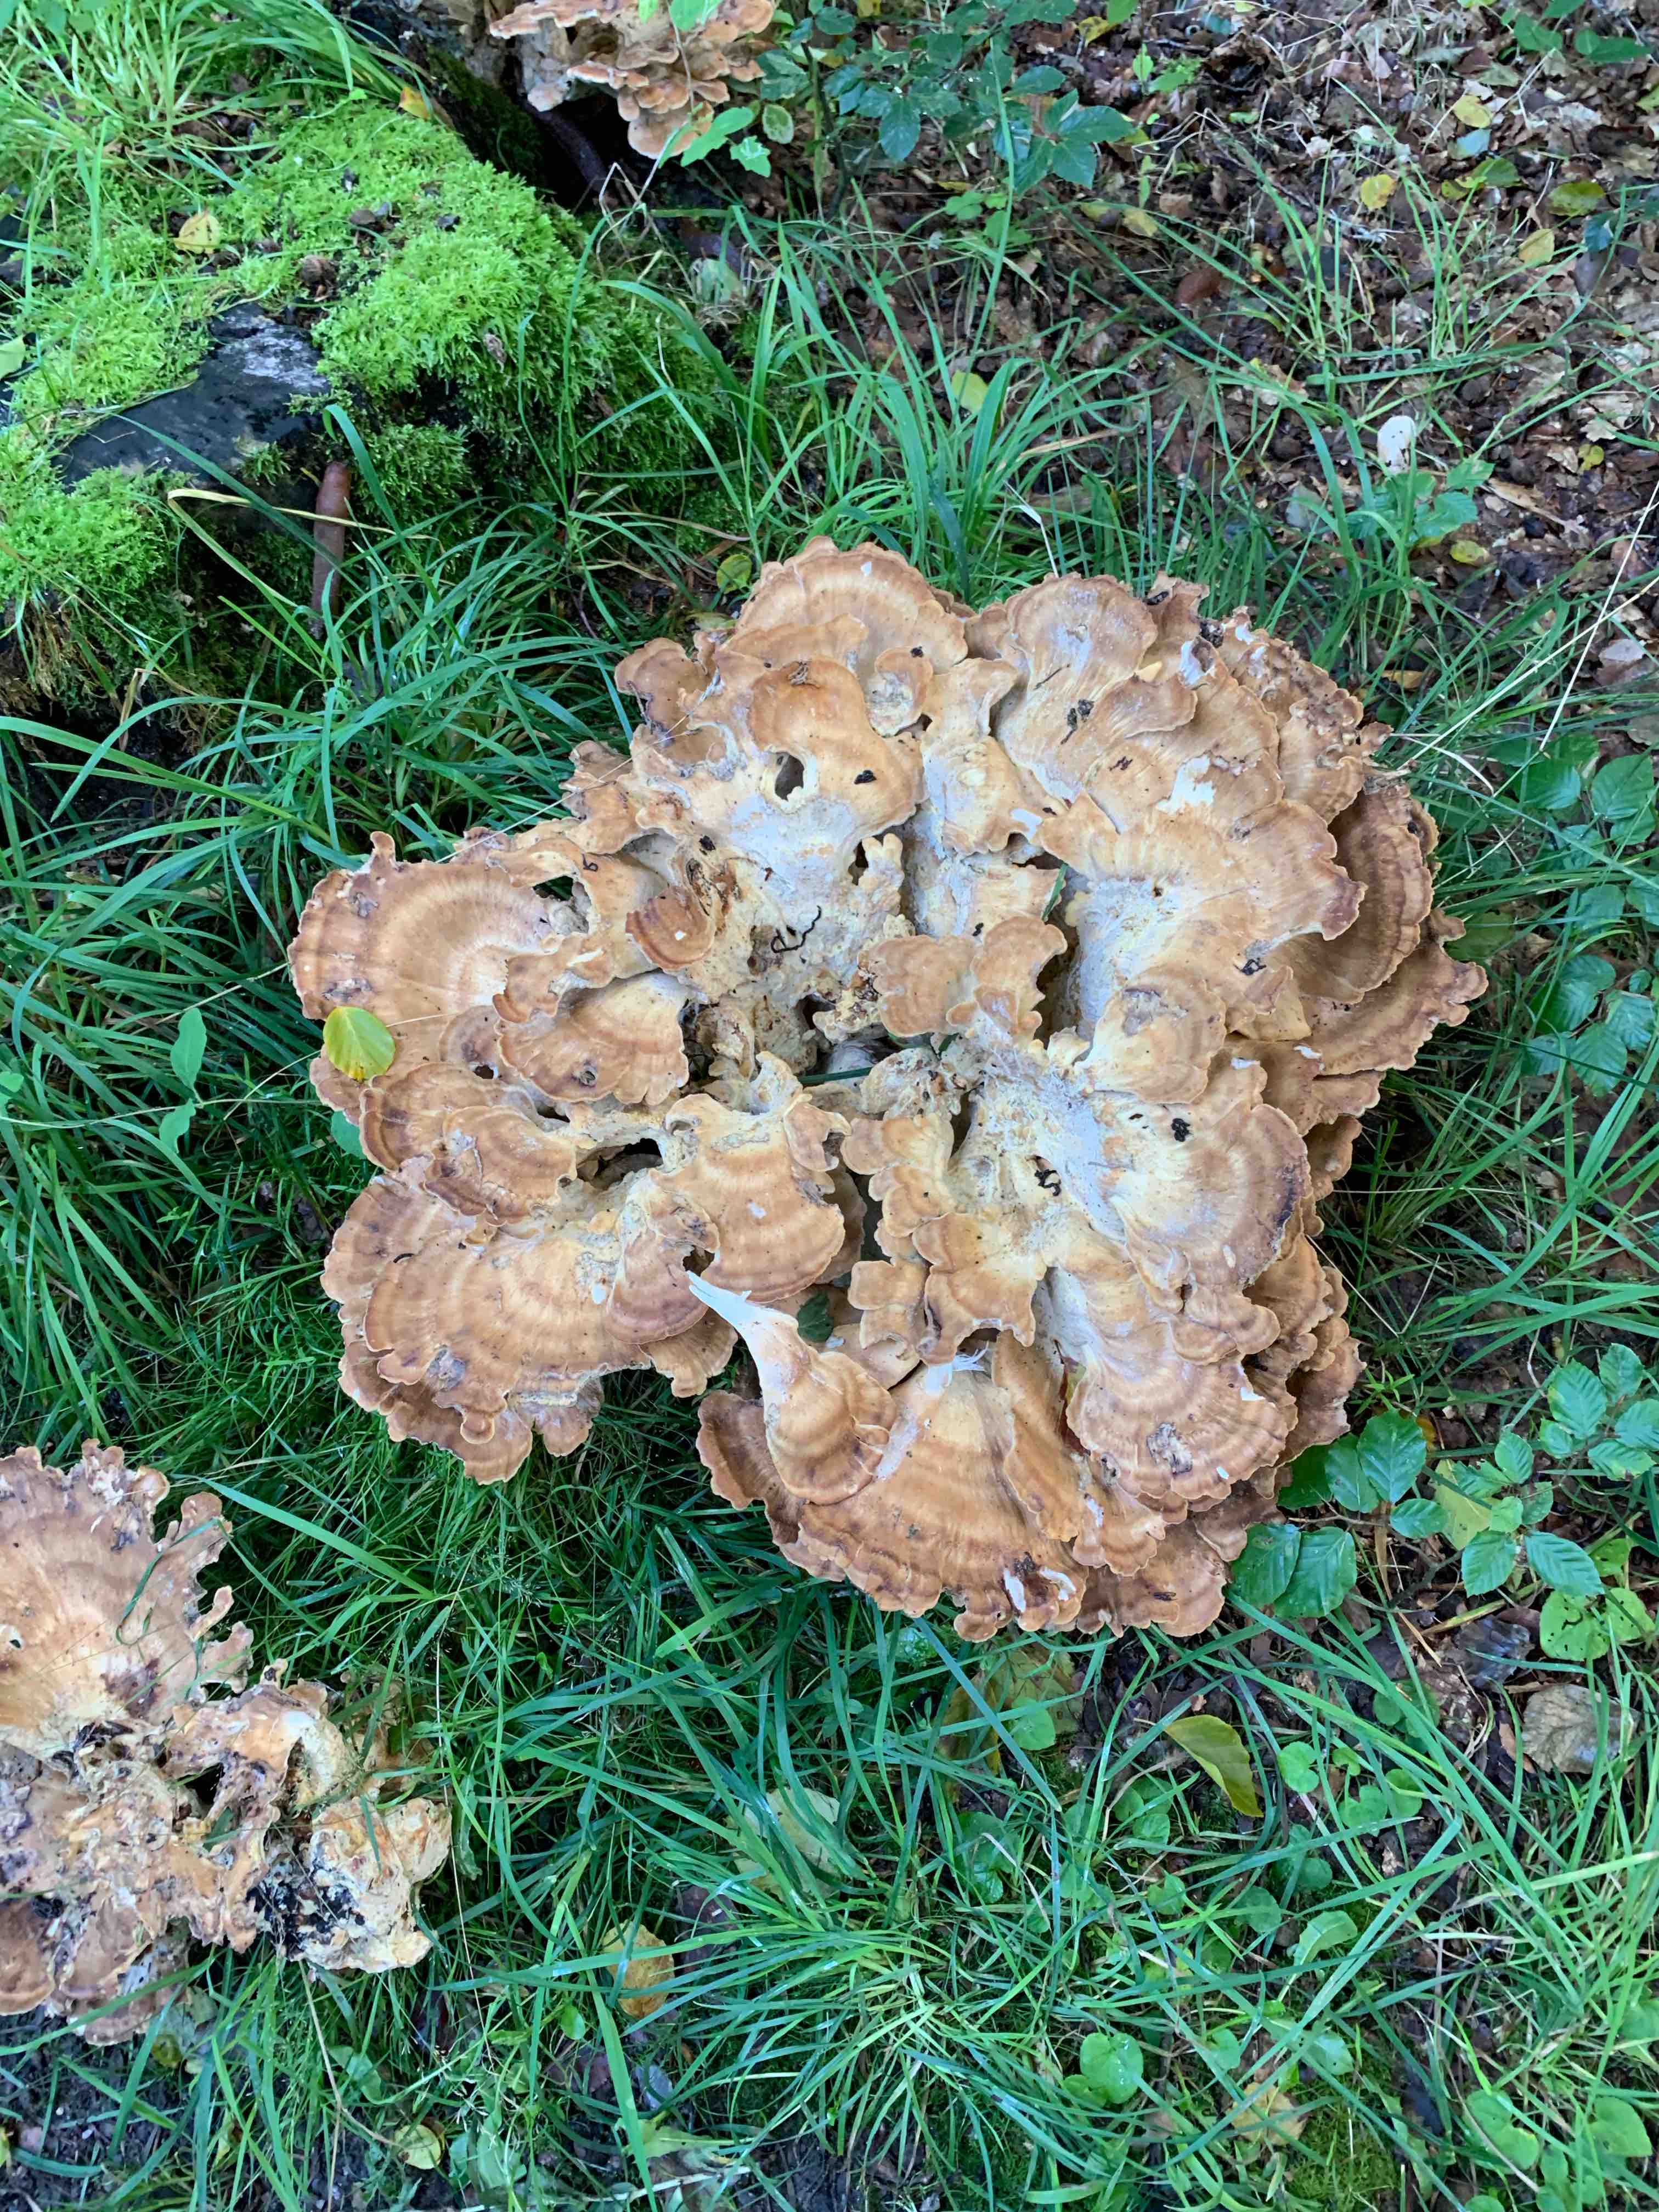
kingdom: Fungi
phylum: Basidiomycota
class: Agaricomycetes
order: Polyporales
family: Meripilaceae
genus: Meripilus
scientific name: Meripilus giganteus
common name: kæmpeporesvamp
